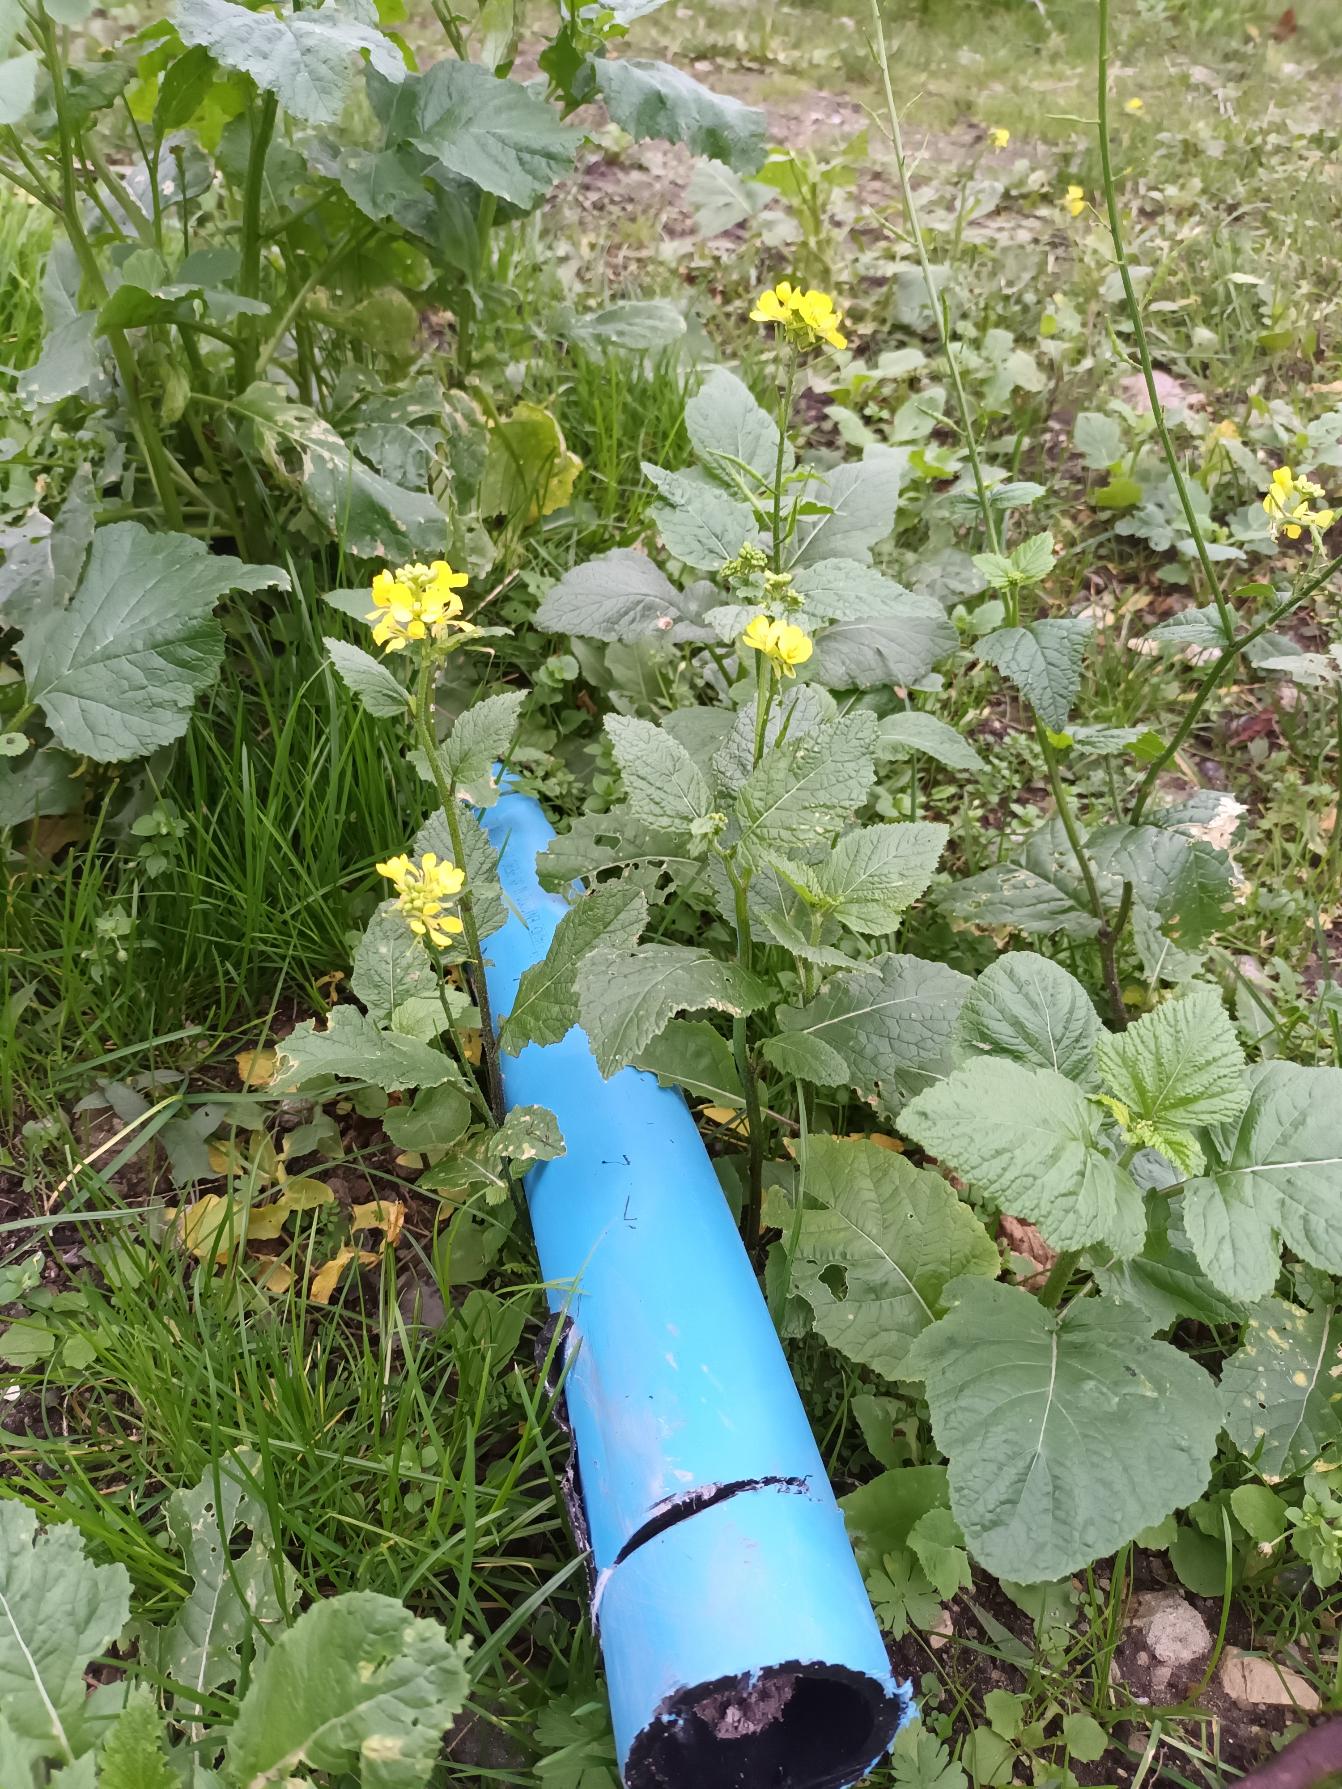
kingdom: Plantae
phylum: Tracheophyta
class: Magnoliopsida
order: Brassicales
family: Brassicaceae
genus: Sinapis
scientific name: Sinapis arvensis
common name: Ager-sennep
